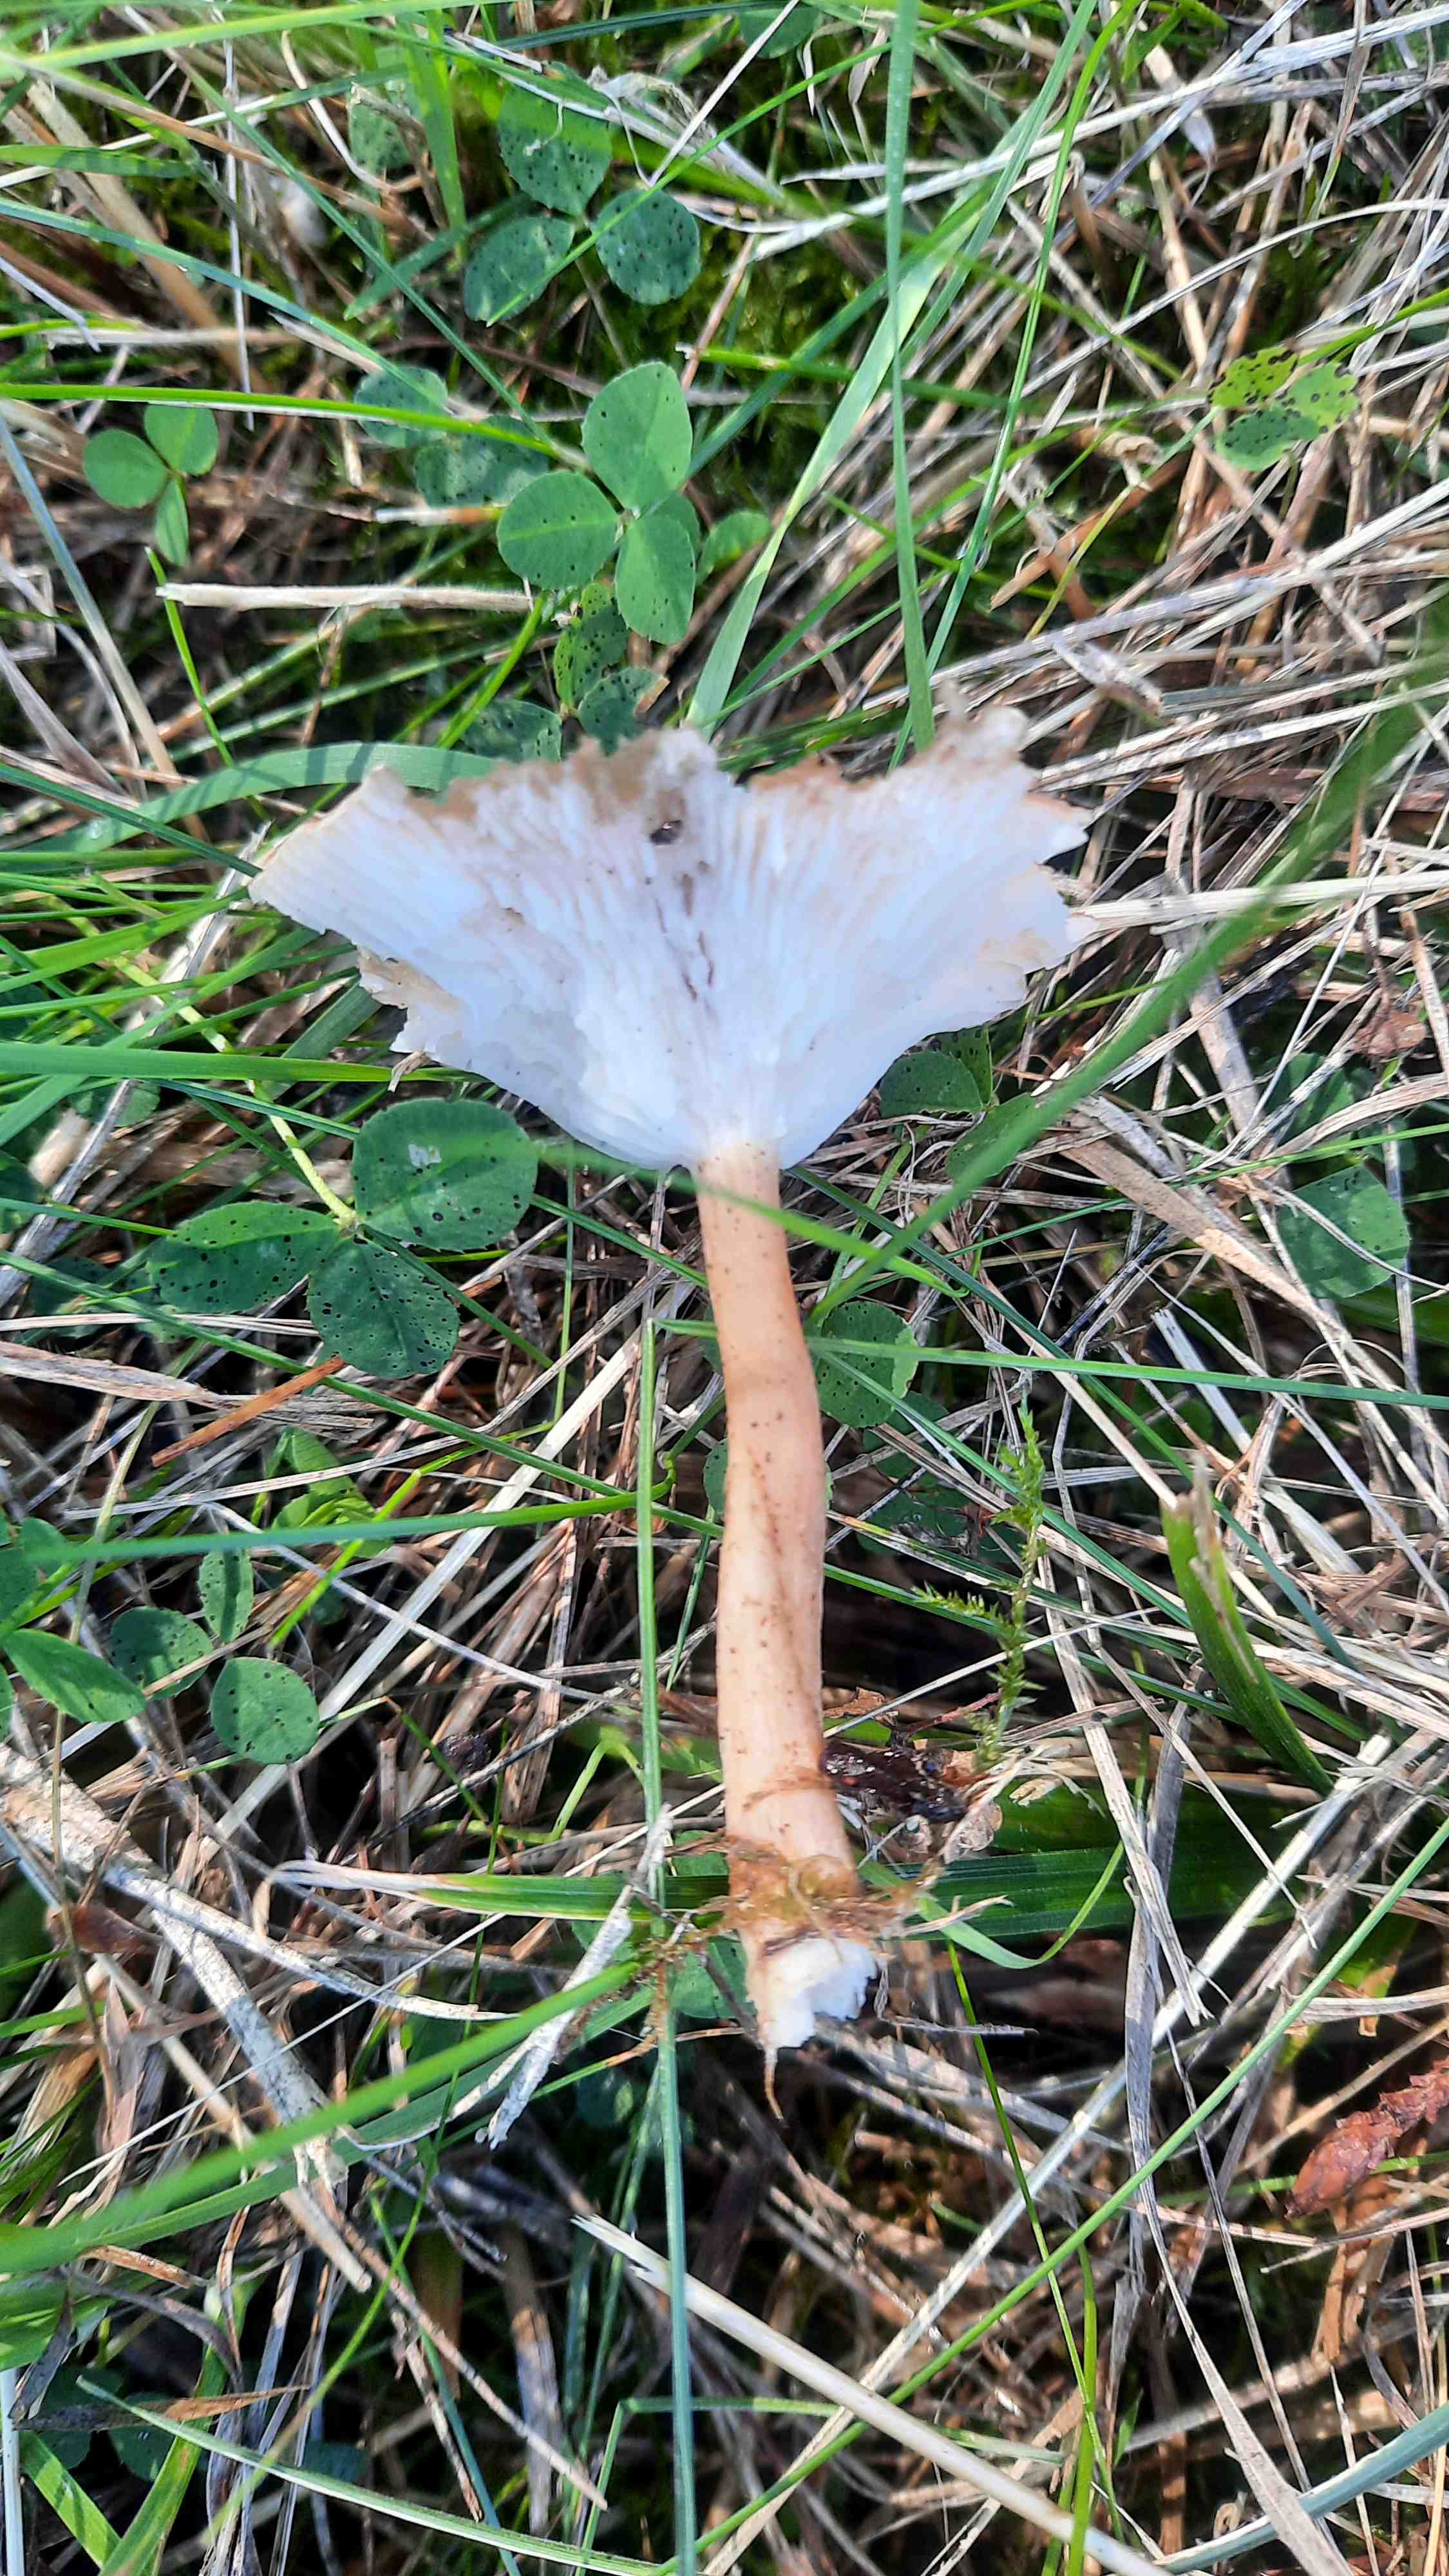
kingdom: Fungi
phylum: Basidiomycota
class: Agaricomycetes
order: Agaricales
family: Tricholomataceae
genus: Infundibulicybe
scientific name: Infundibulicybe
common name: tragthat
